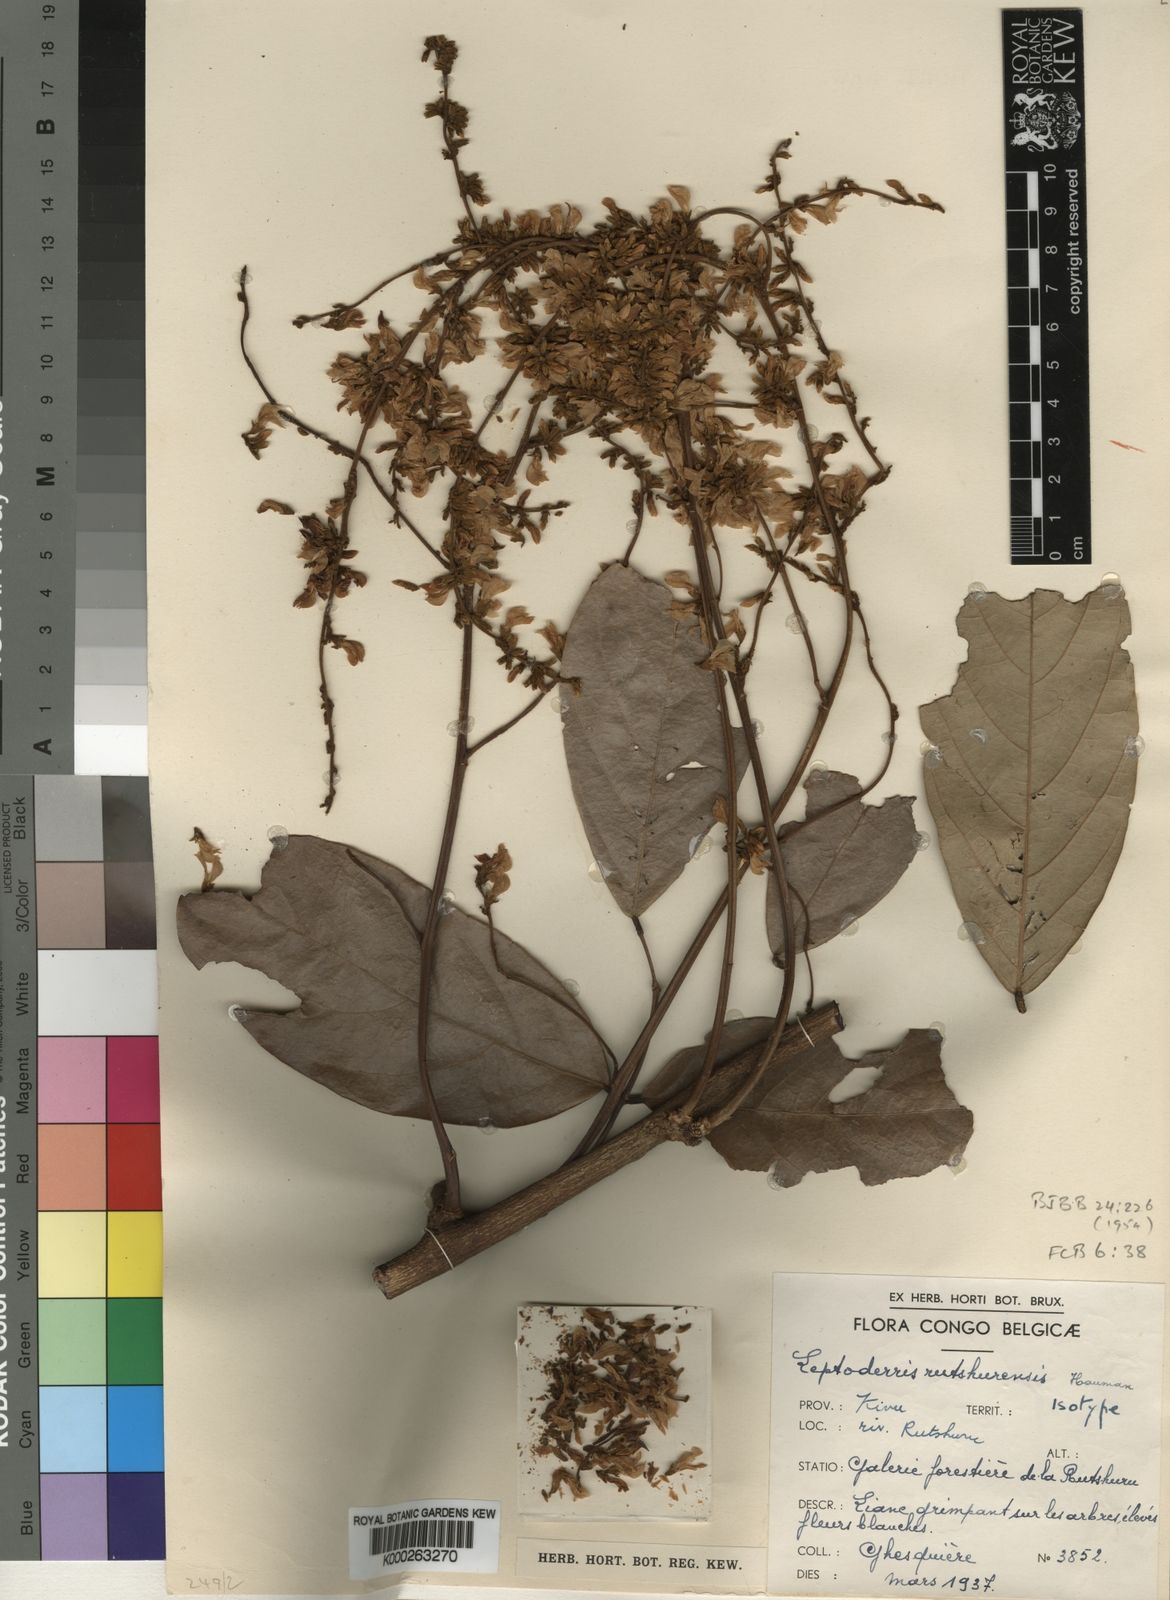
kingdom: Plantae
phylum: Tracheophyta
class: Magnoliopsida
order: Fabales
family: Fabaceae
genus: Leptoderris
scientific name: Leptoderris fasciculata
